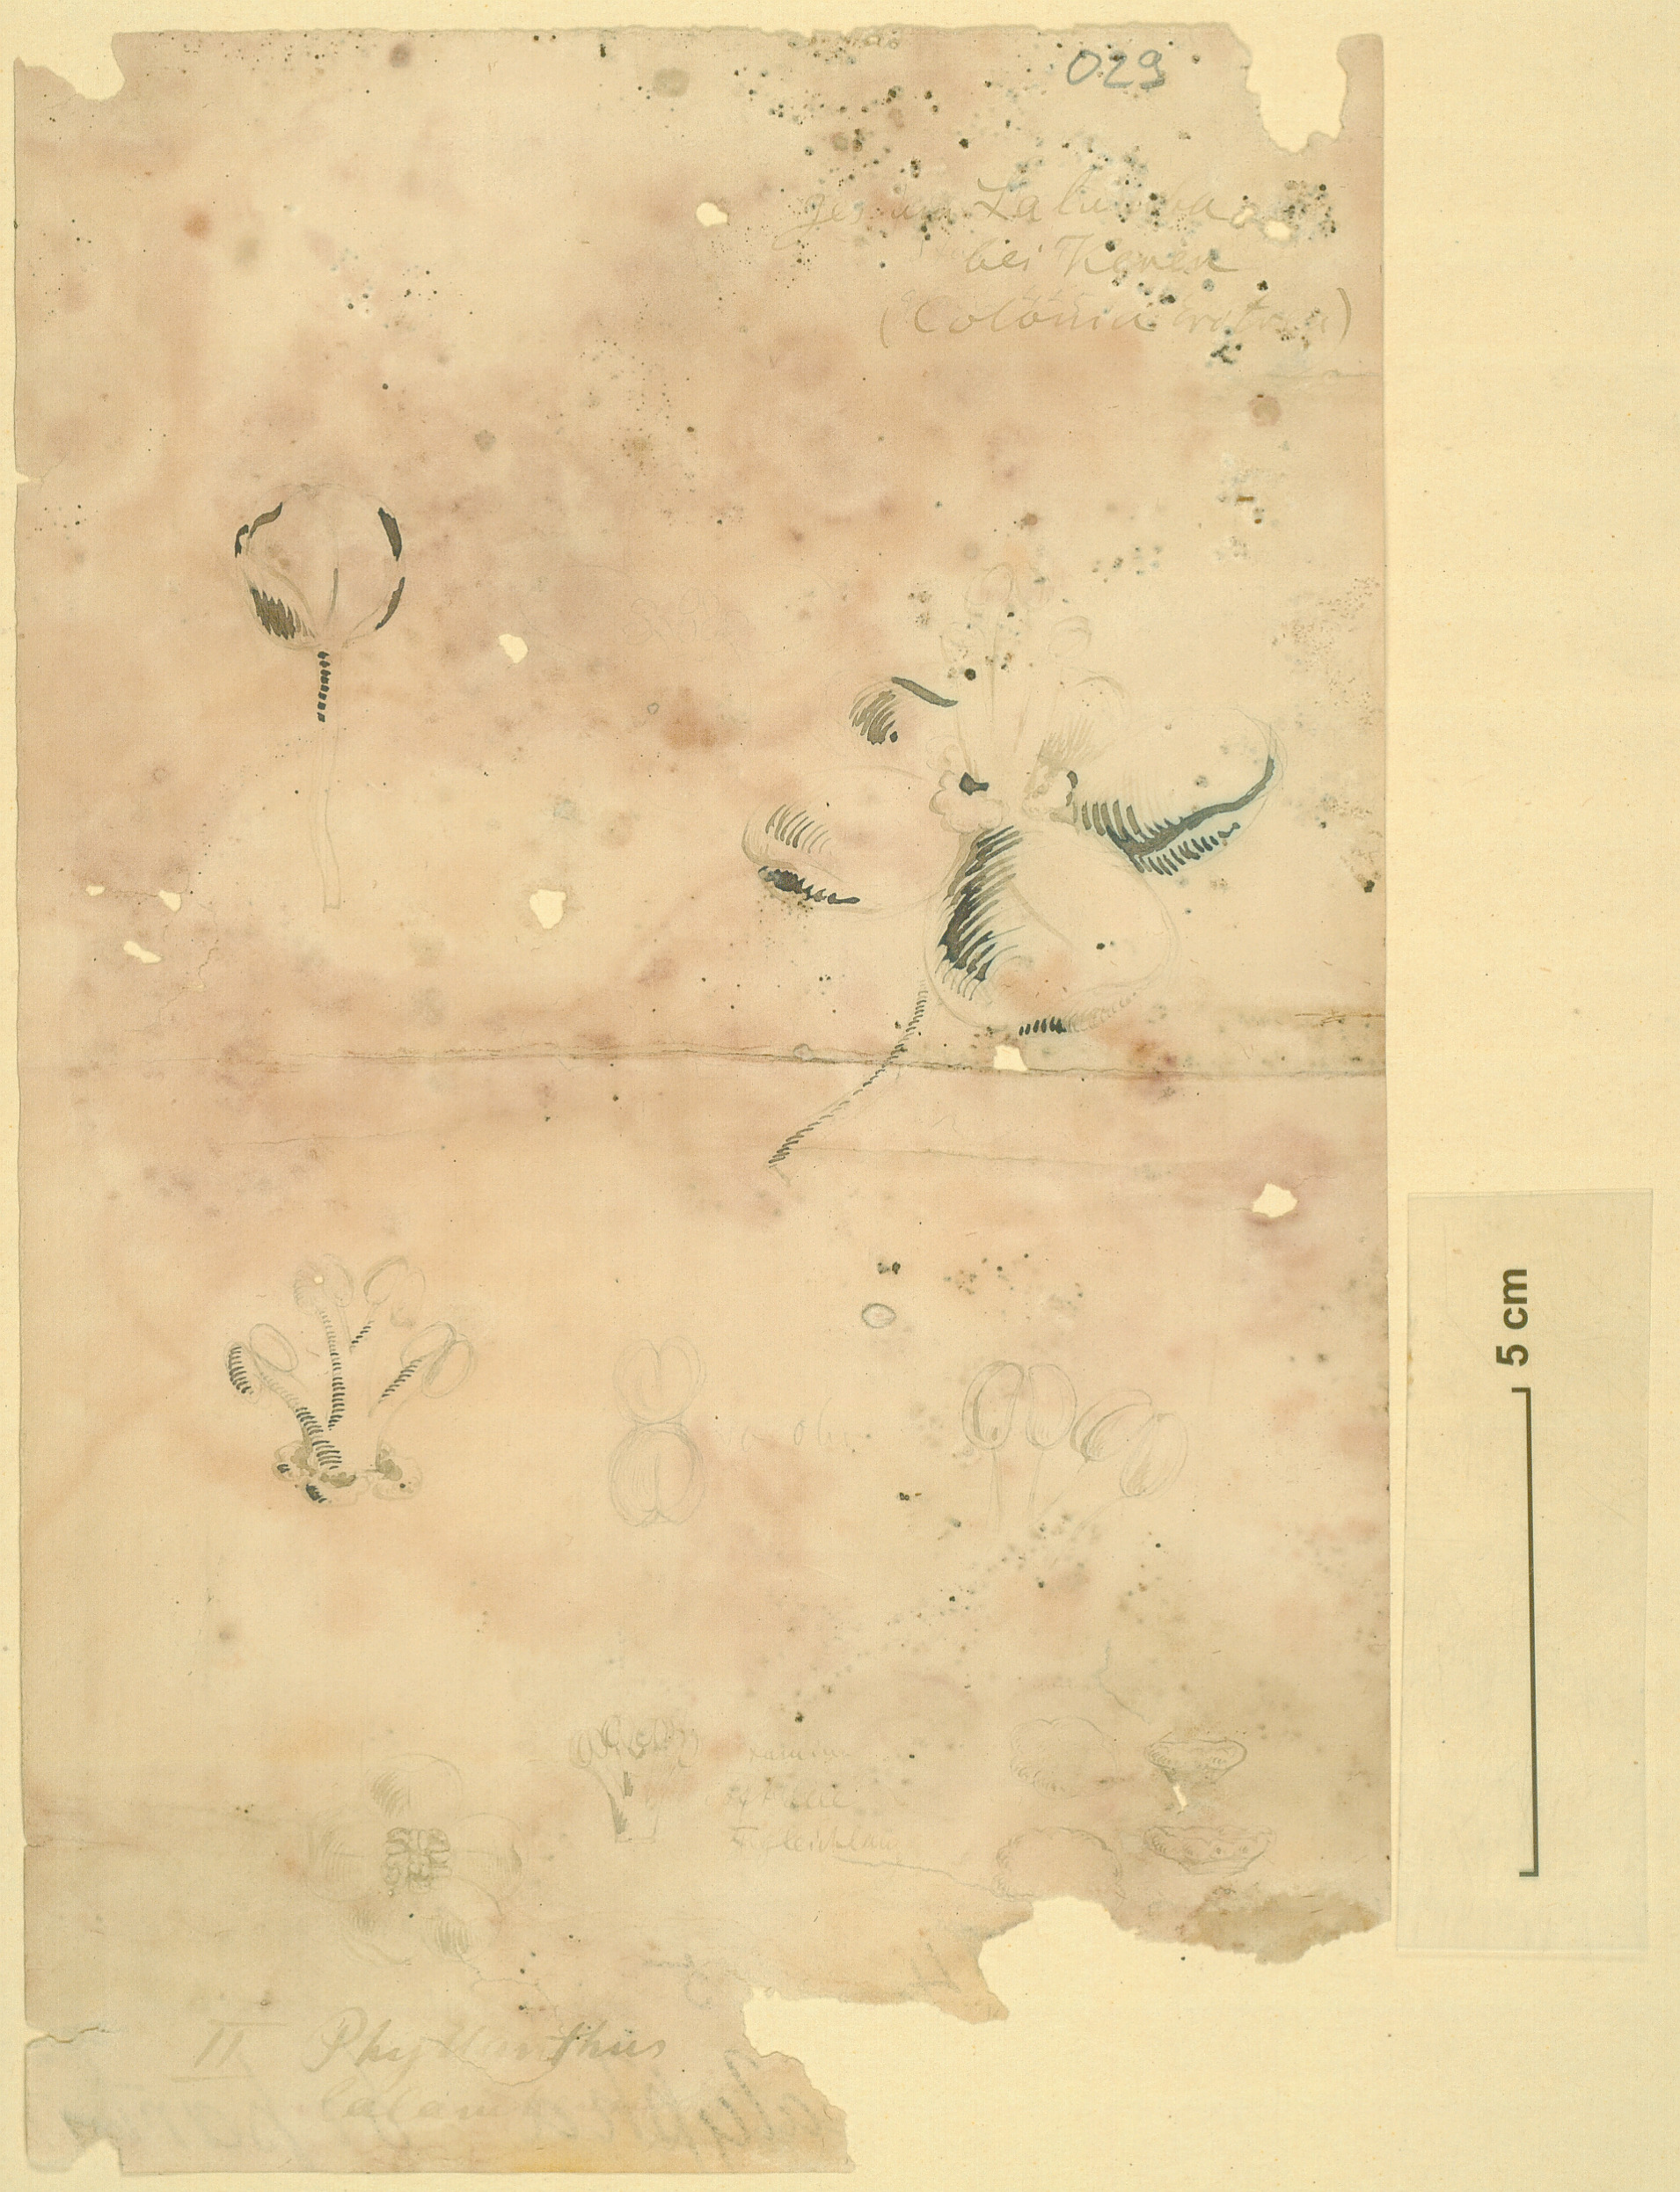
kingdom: Plantae
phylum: Tracheophyta
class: Magnoliopsida
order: Malpighiales
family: Euphorbiaceae
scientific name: Euphorbiaceae
